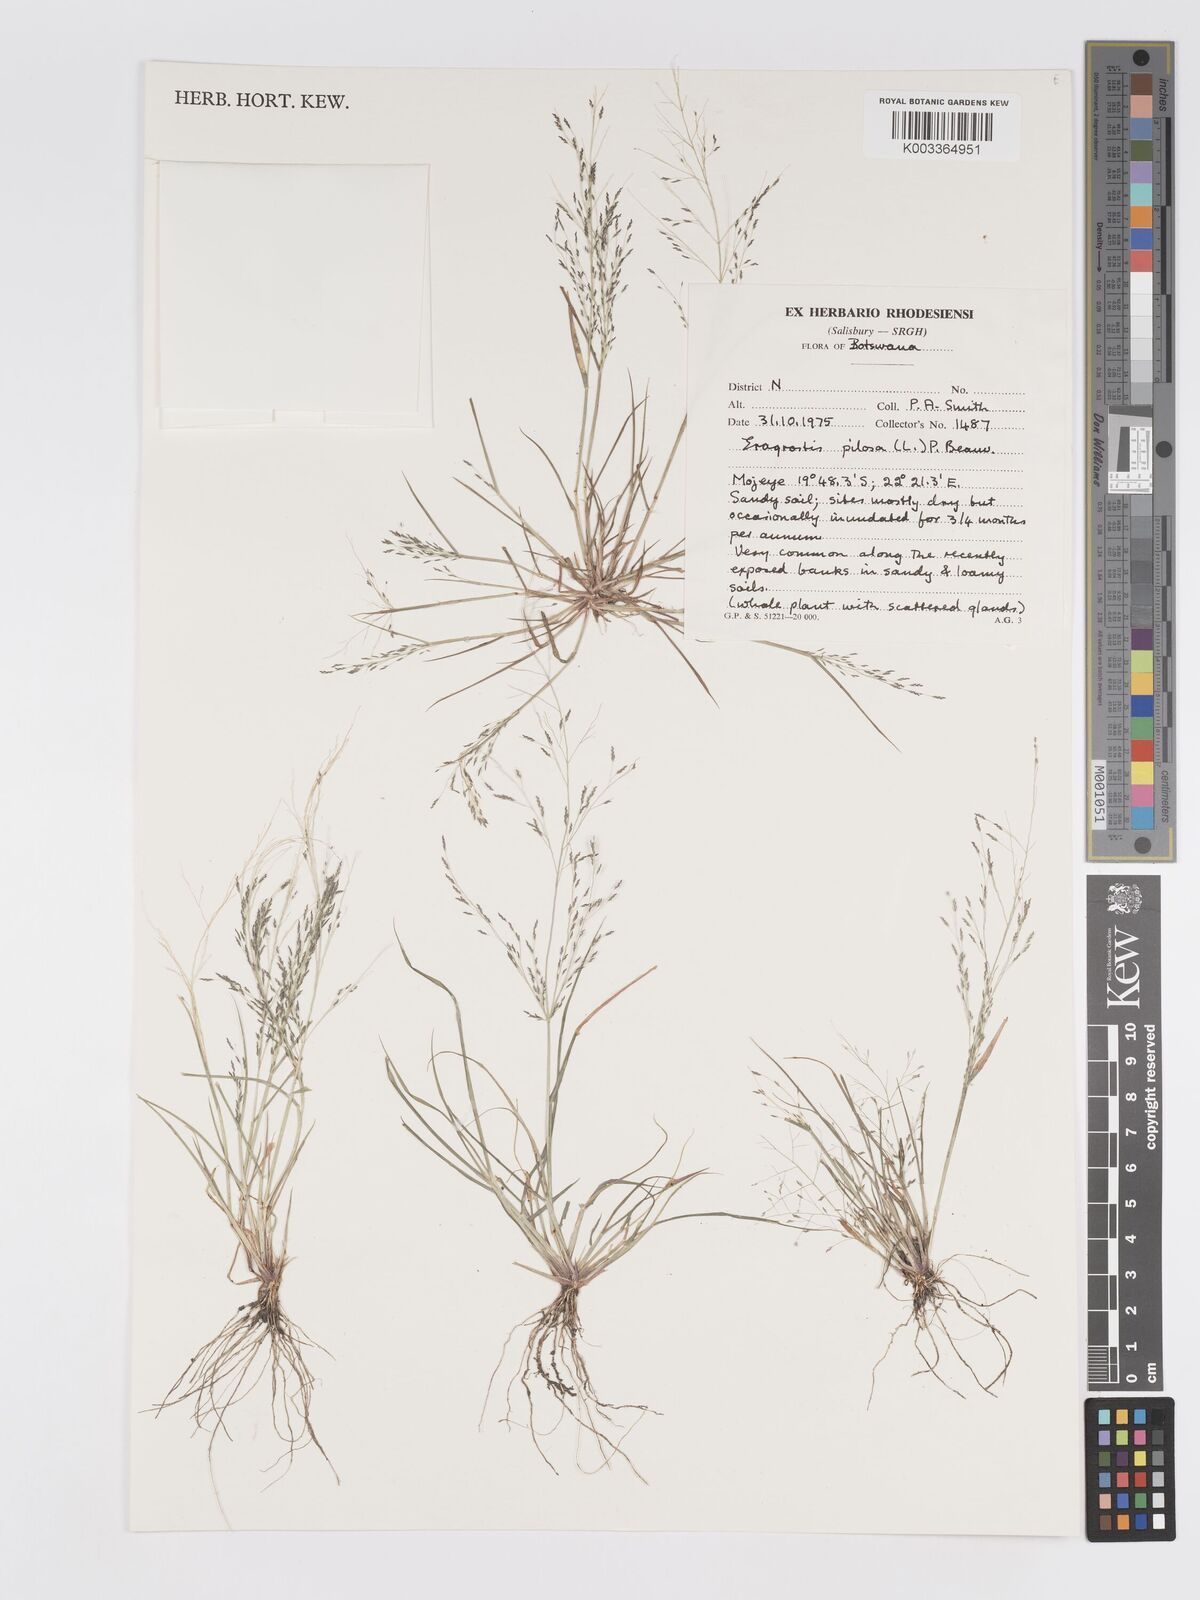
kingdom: Plantae
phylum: Tracheophyta
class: Liliopsida
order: Poales
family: Poaceae
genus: Eragrostis
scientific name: Eragrostis pilosa
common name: Indian lovegrass
